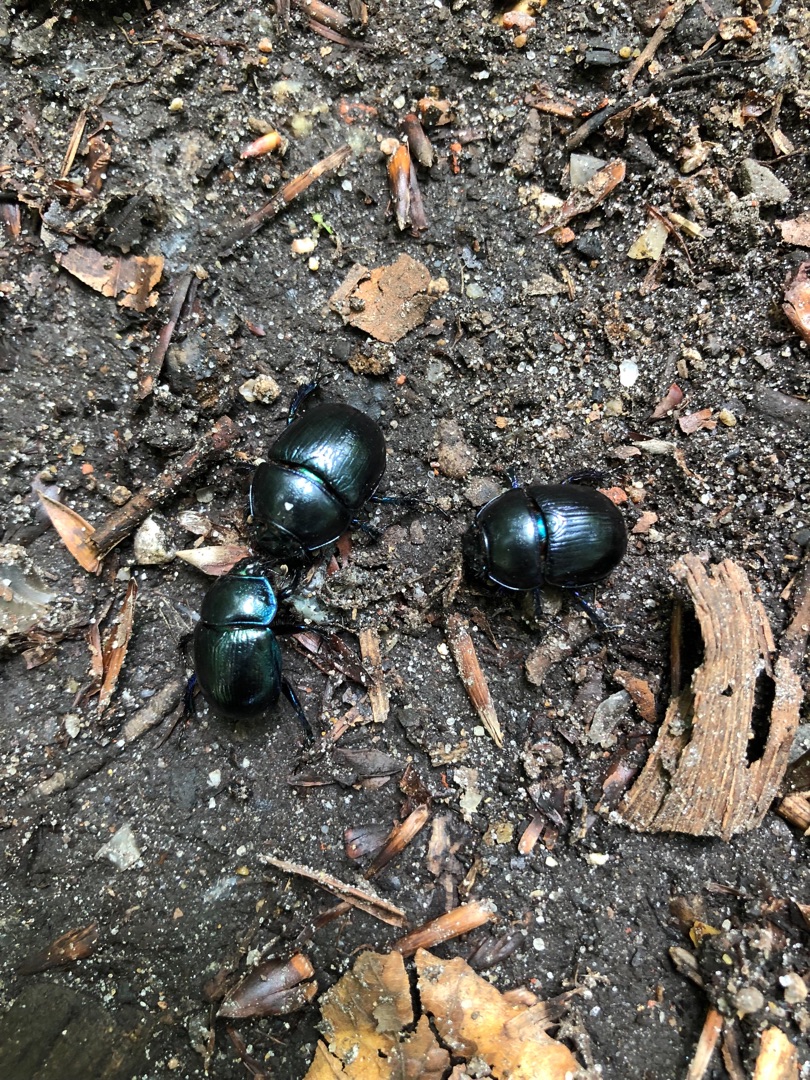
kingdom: Animalia
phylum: Arthropoda
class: Insecta
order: Coleoptera
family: Geotrupidae
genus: Anoplotrupes
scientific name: Anoplotrupes stercorosus
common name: Skovskarnbasse
